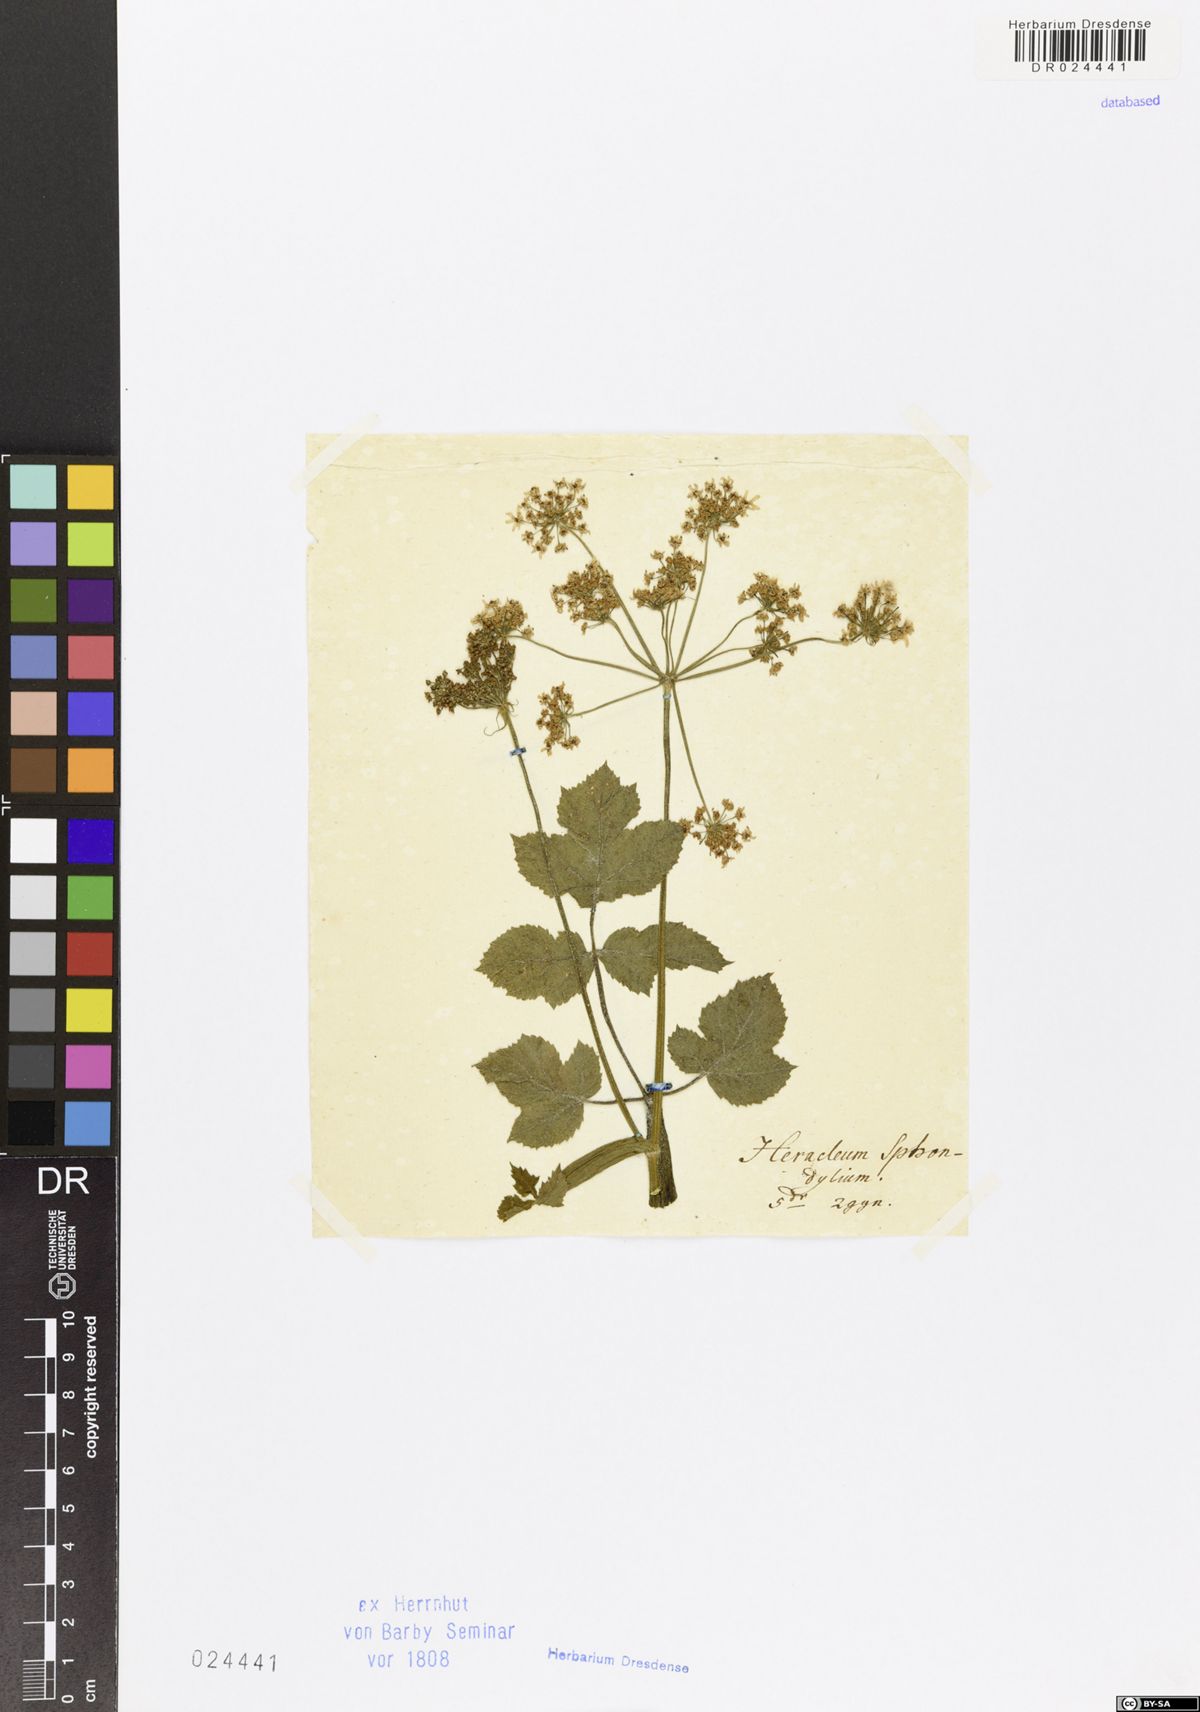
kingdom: Plantae
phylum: Tracheophyta
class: Magnoliopsida
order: Apiales
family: Apiaceae
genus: Heracleum
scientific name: Heracleum sphondylium
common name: Hogweed
